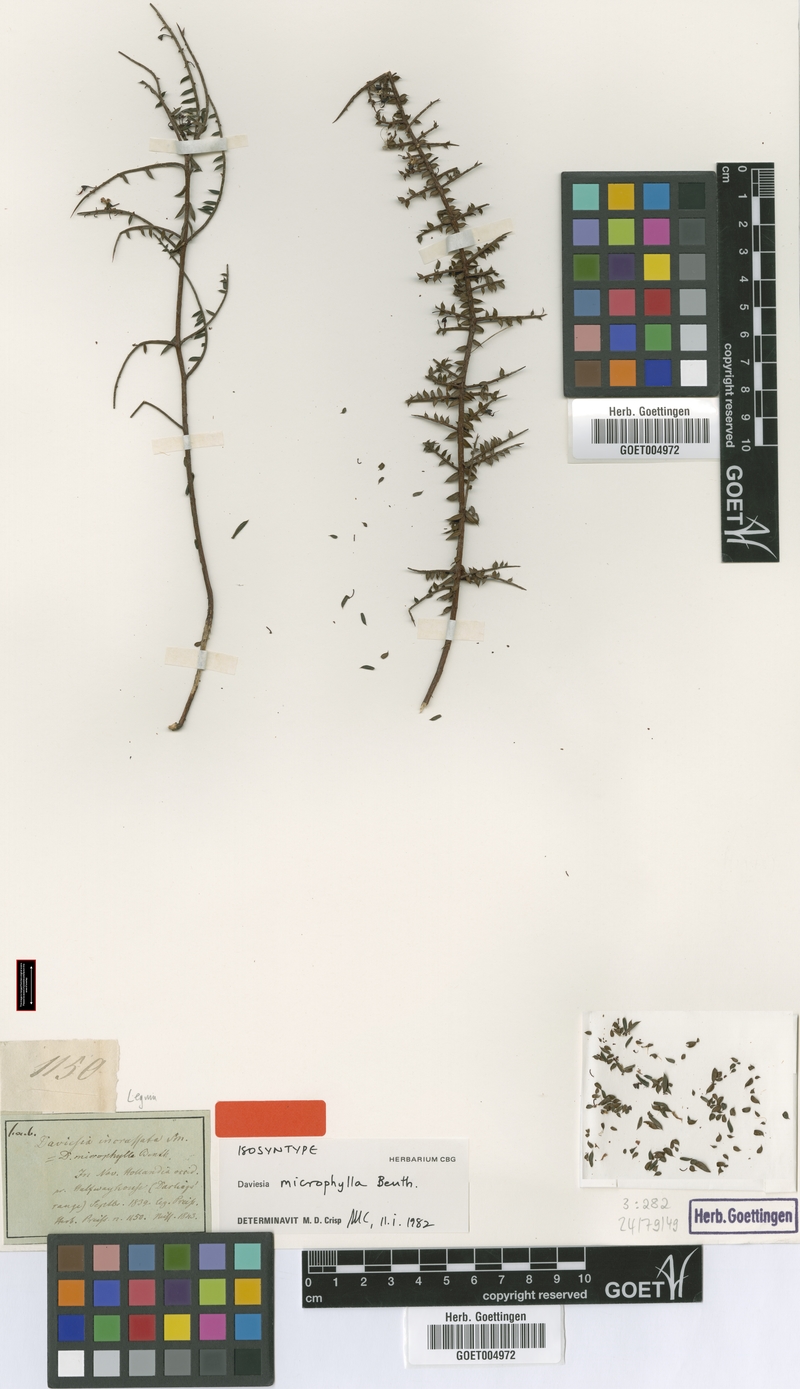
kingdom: Plantae
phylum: Tracheophyta
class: Magnoliopsida
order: Fabales
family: Fabaceae
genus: Daviesia
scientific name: Daviesia microphylla
